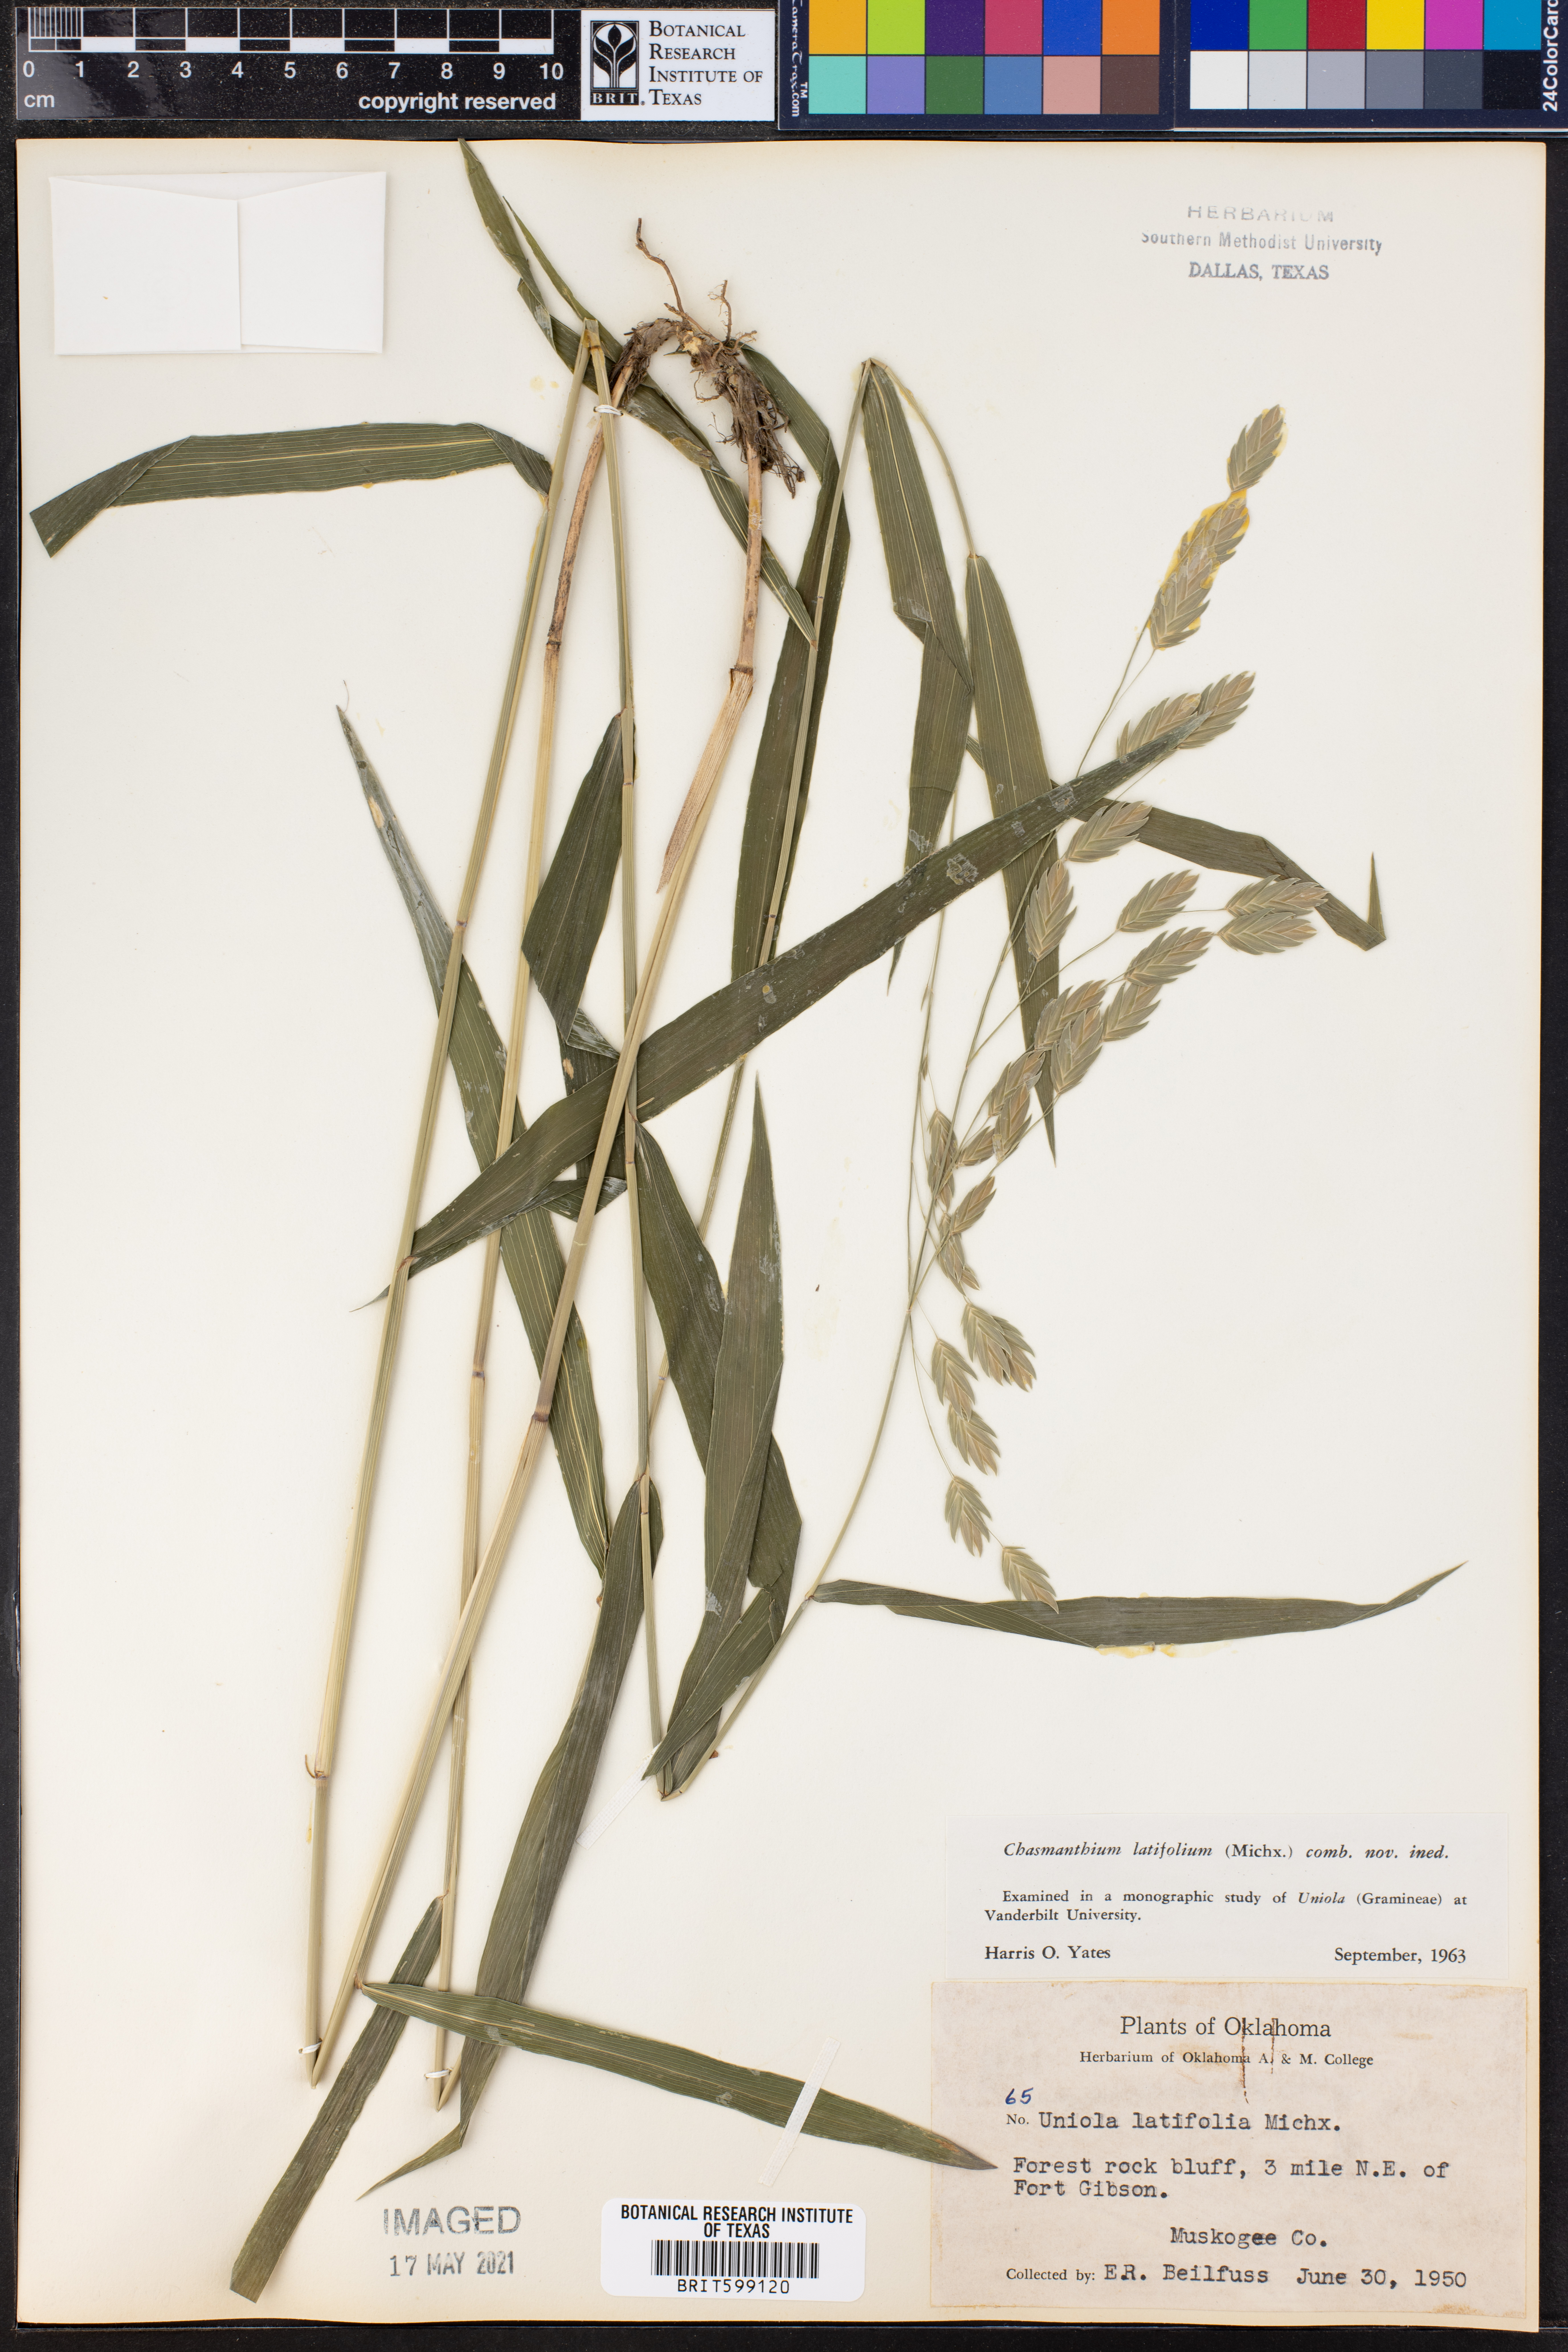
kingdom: Plantae
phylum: Tracheophyta
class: Liliopsida
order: Poales
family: Poaceae
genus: Chasmanthium
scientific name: Chasmanthium latifolium
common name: Broad-leaved chasmanthium
